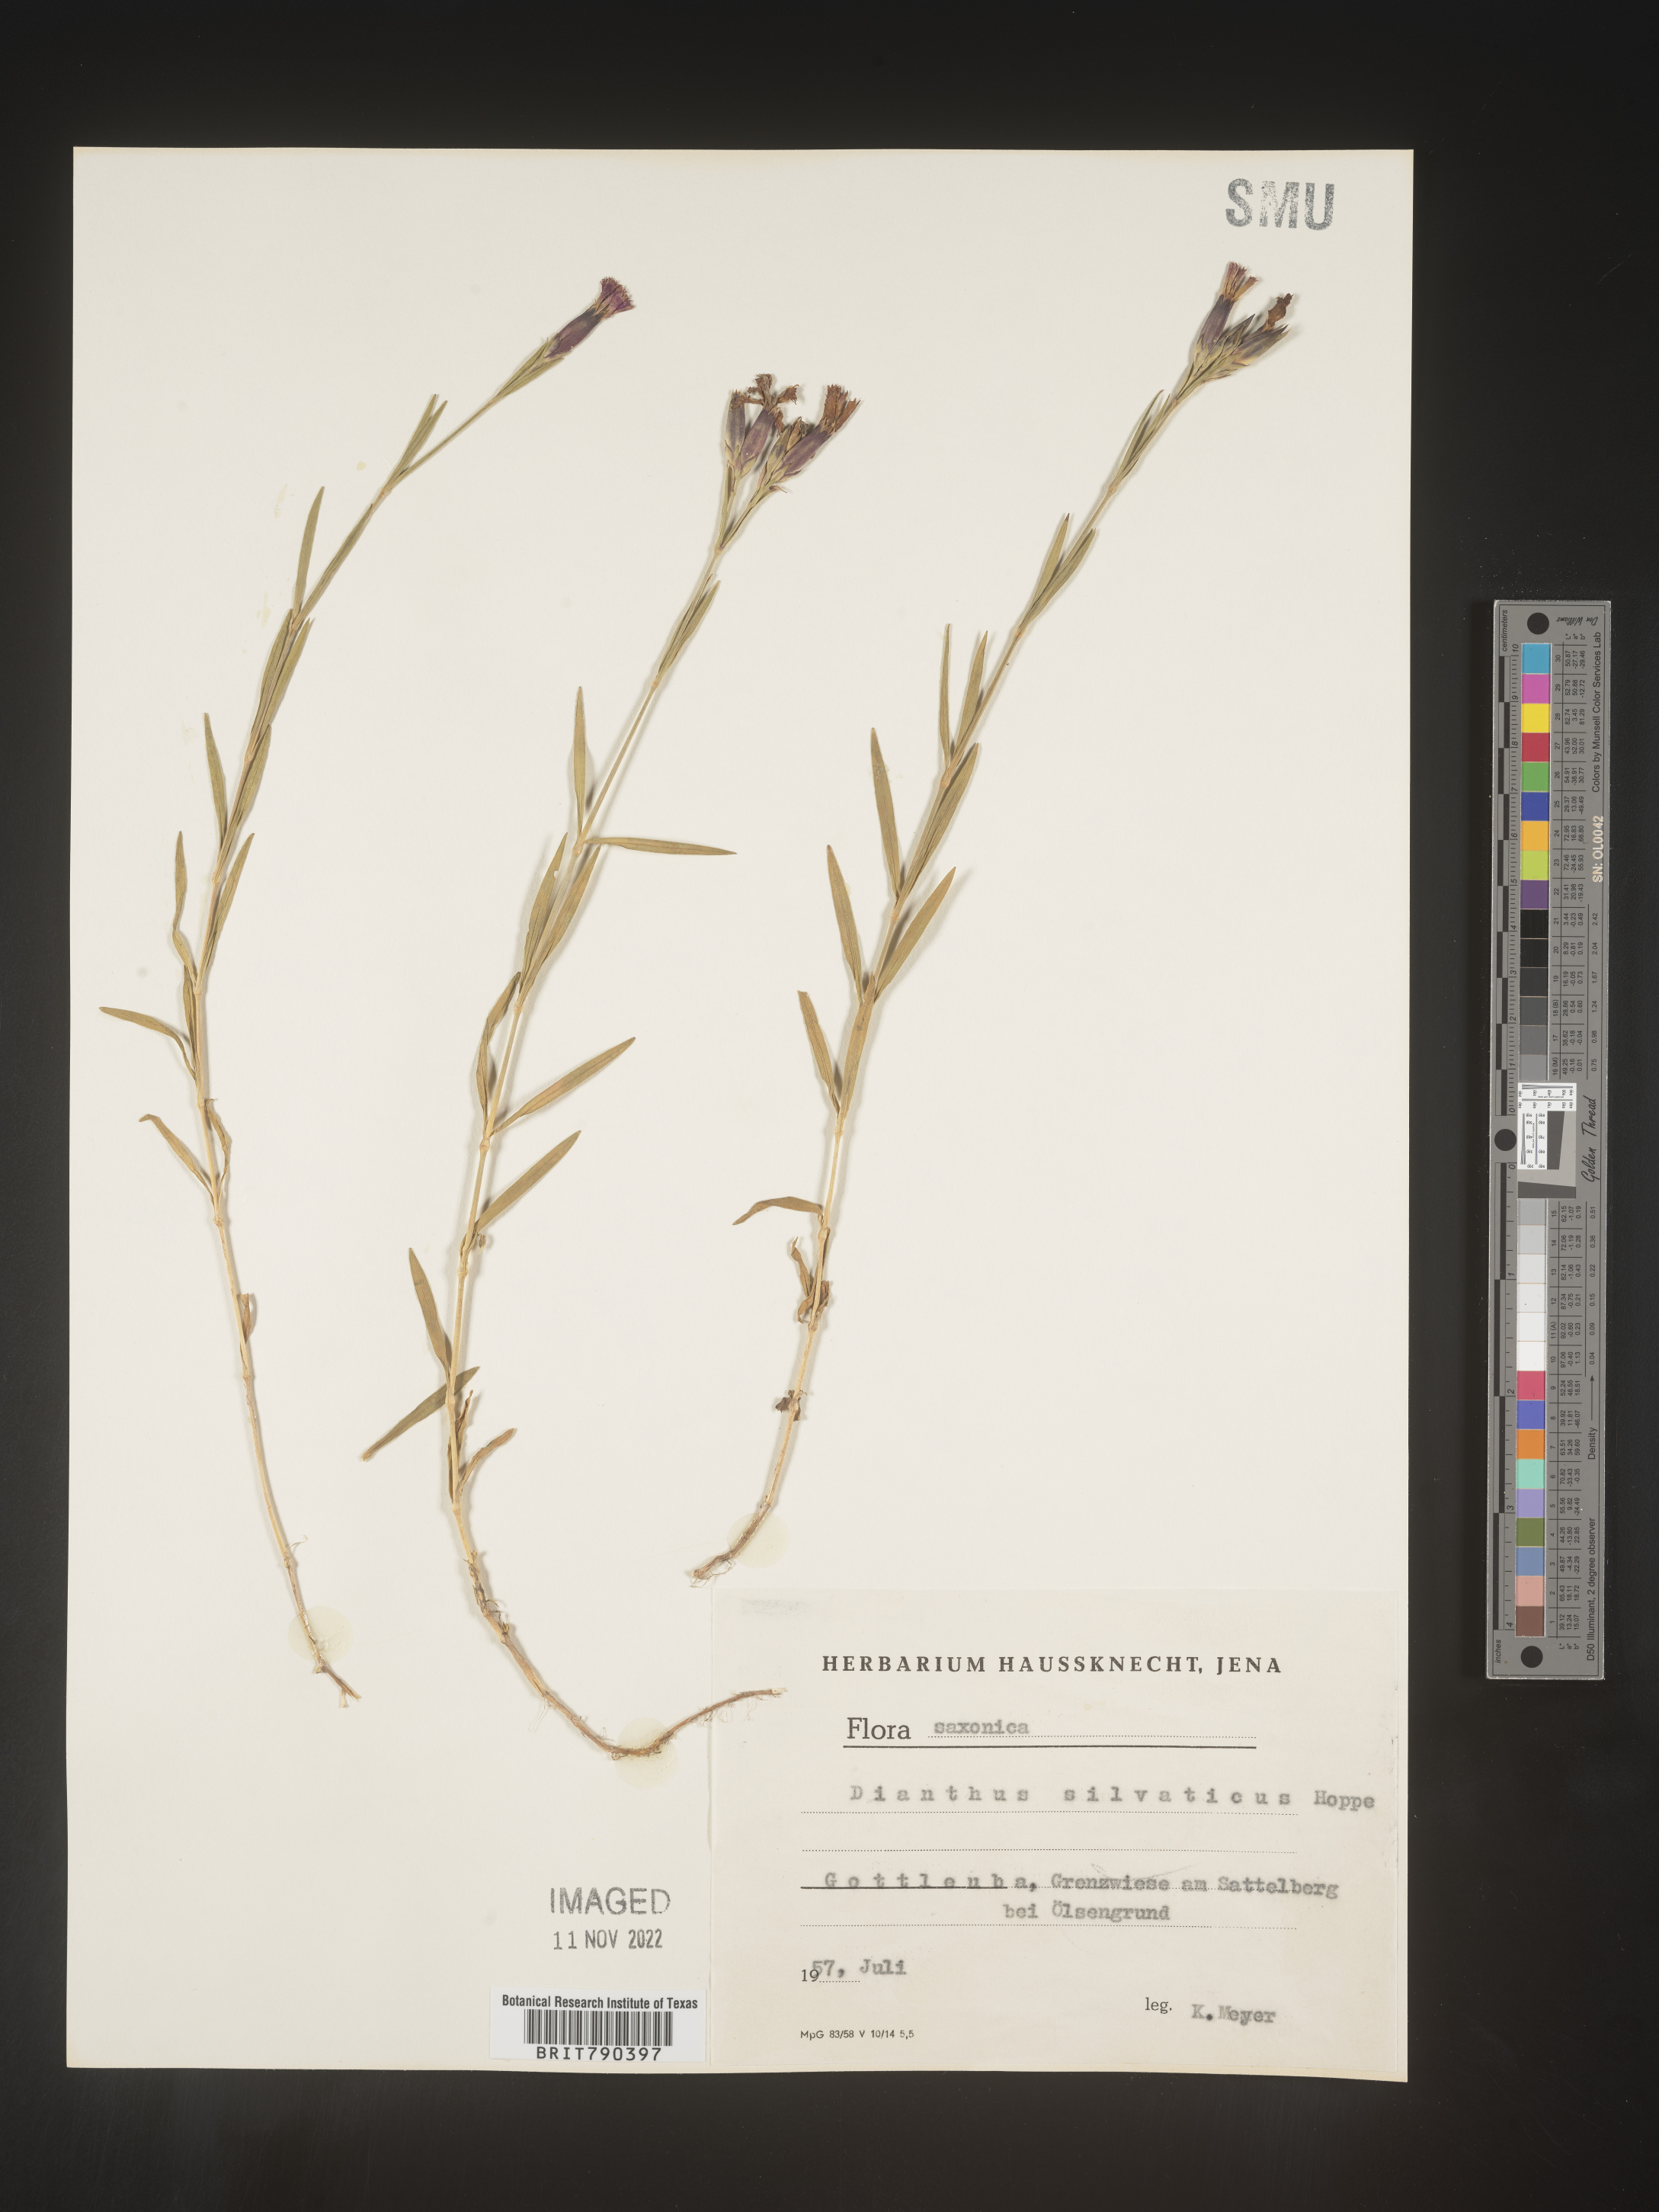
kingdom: Plantae
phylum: Tracheophyta
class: Magnoliopsida
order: Caryophyllales
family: Caryophyllaceae
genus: Dianthus
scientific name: Dianthus
